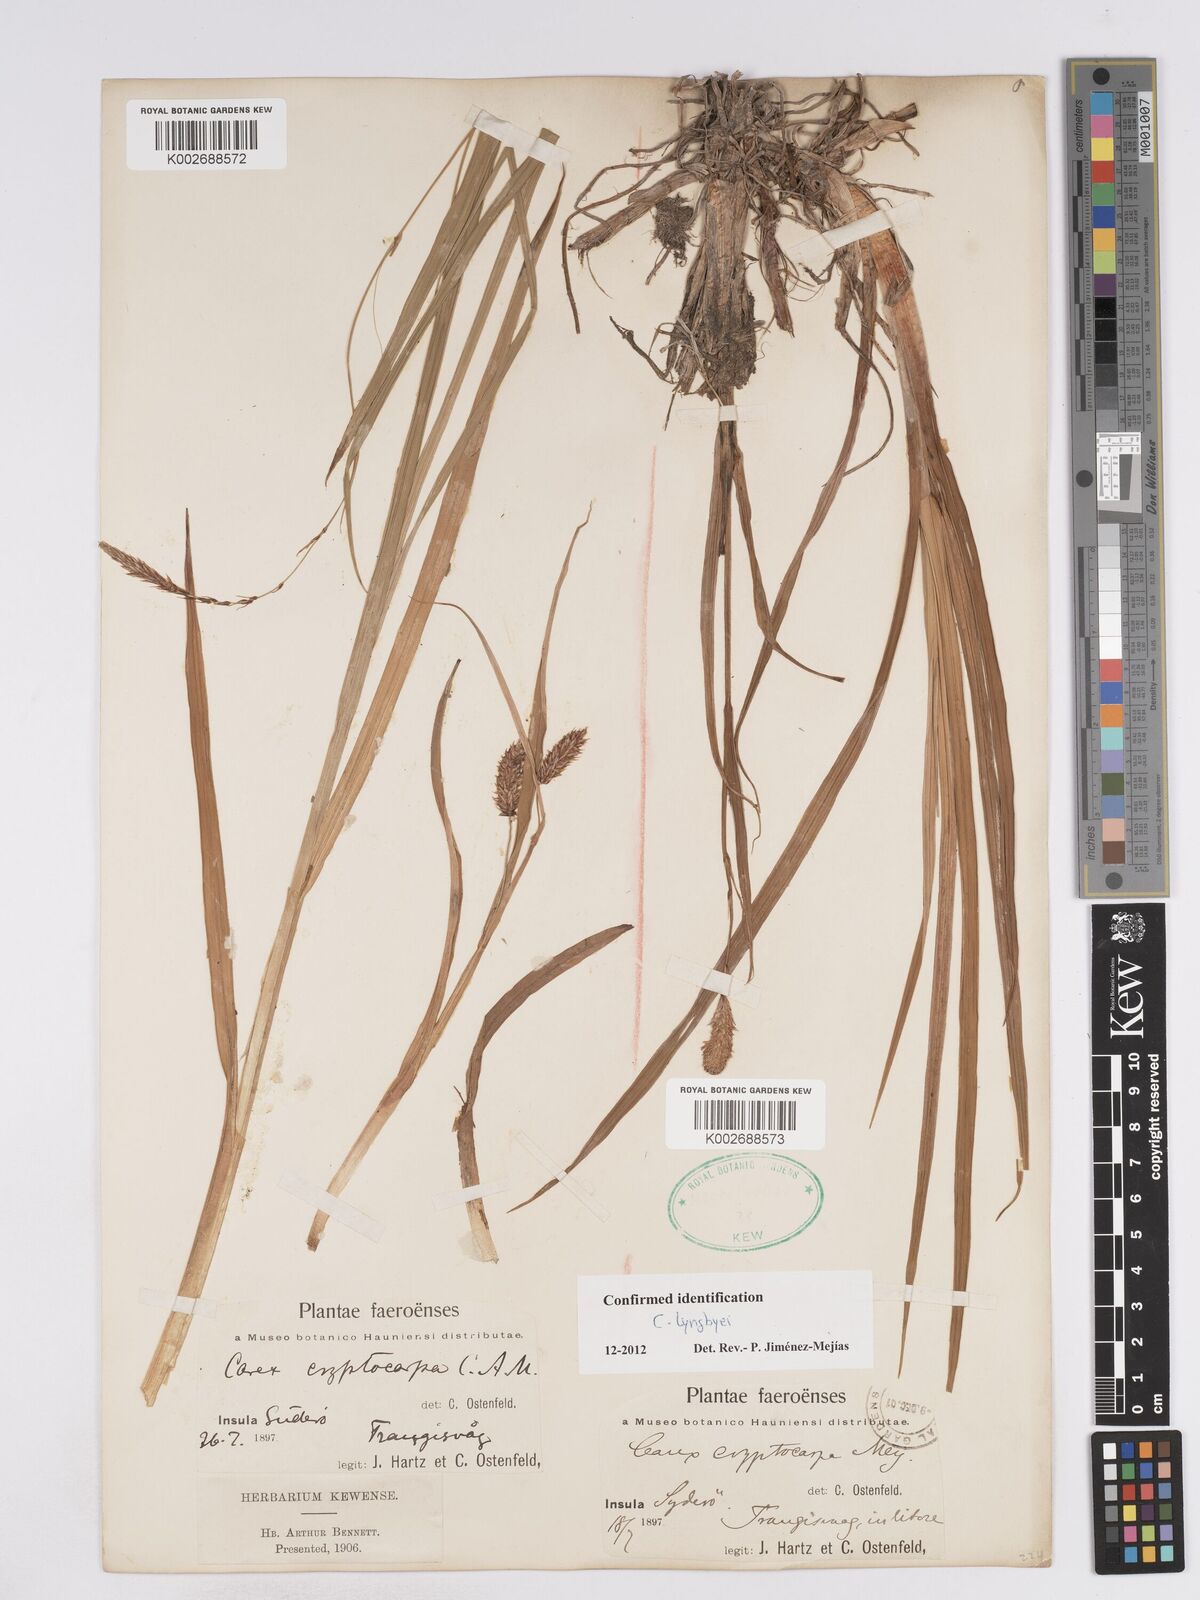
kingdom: Plantae
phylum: Tracheophyta
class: Liliopsida
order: Poales
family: Cyperaceae
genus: Carex
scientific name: Carex lyngbyei
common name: Lyngbye's sedge
